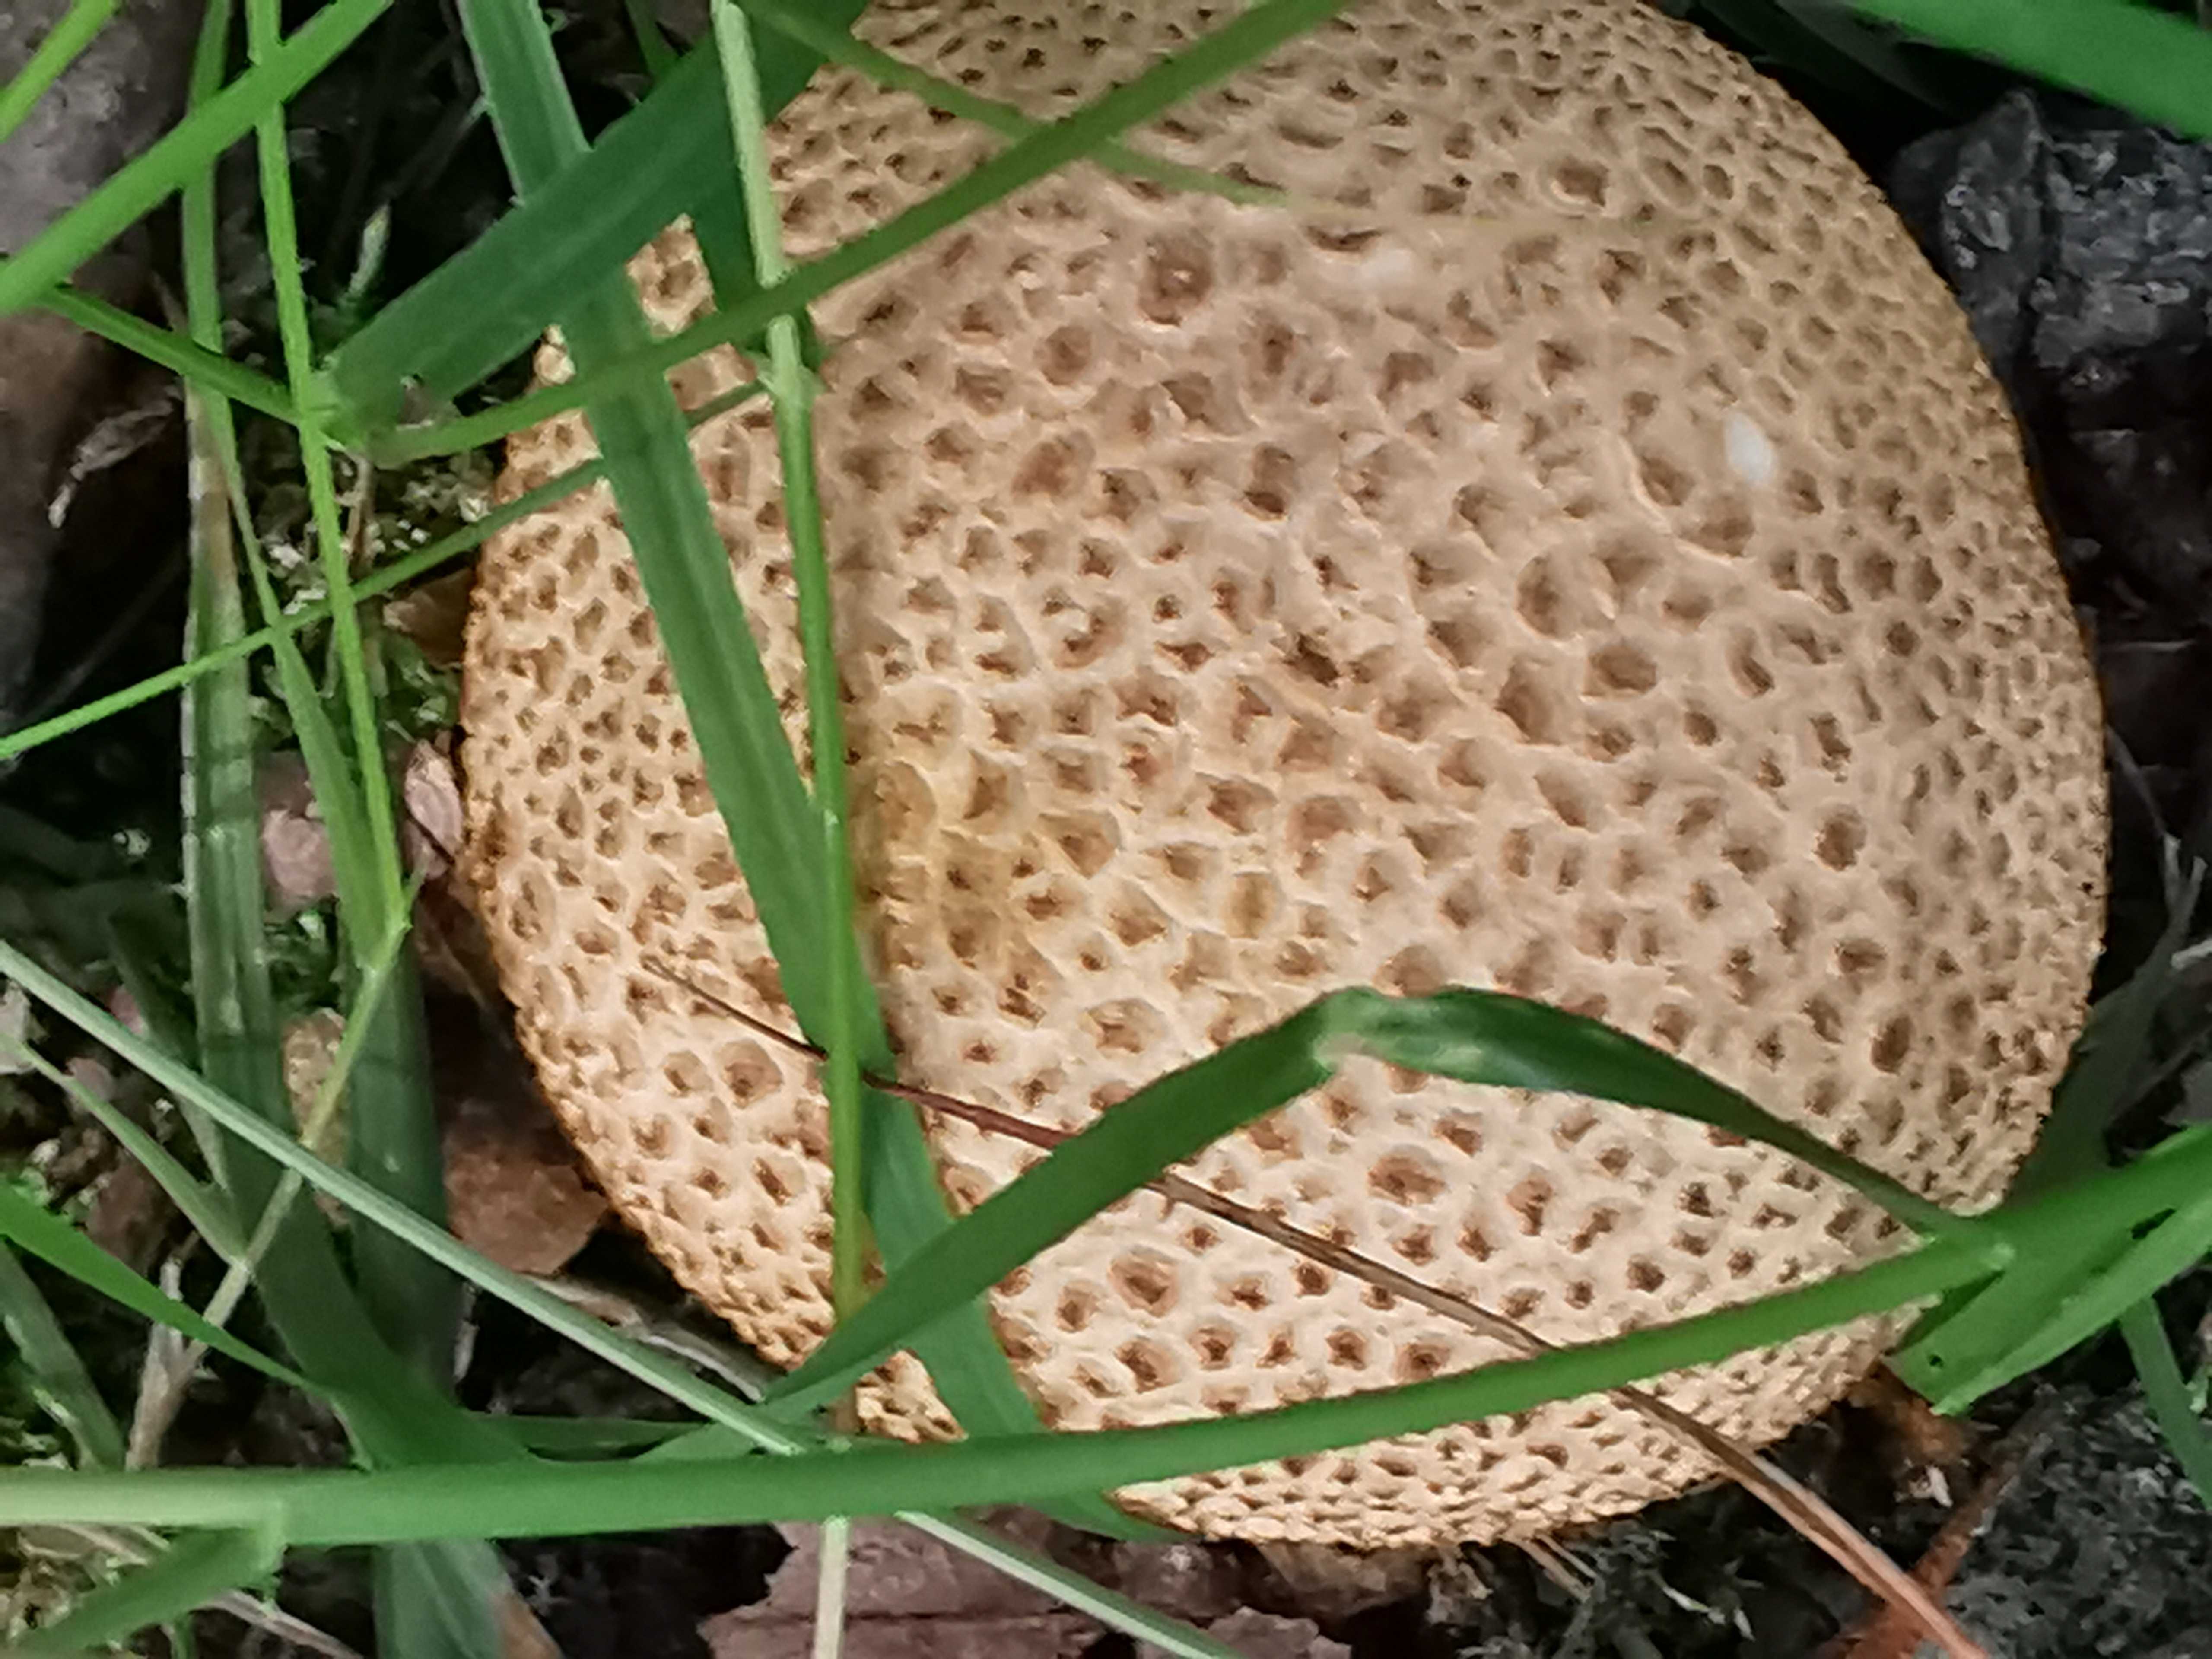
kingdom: Fungi
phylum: Basidiomycota
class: Agaricomycetes
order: Boletales
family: Sclerodermataceae
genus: Scleroderma
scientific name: Scleroderma citrinum
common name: almindelig bruskbold
